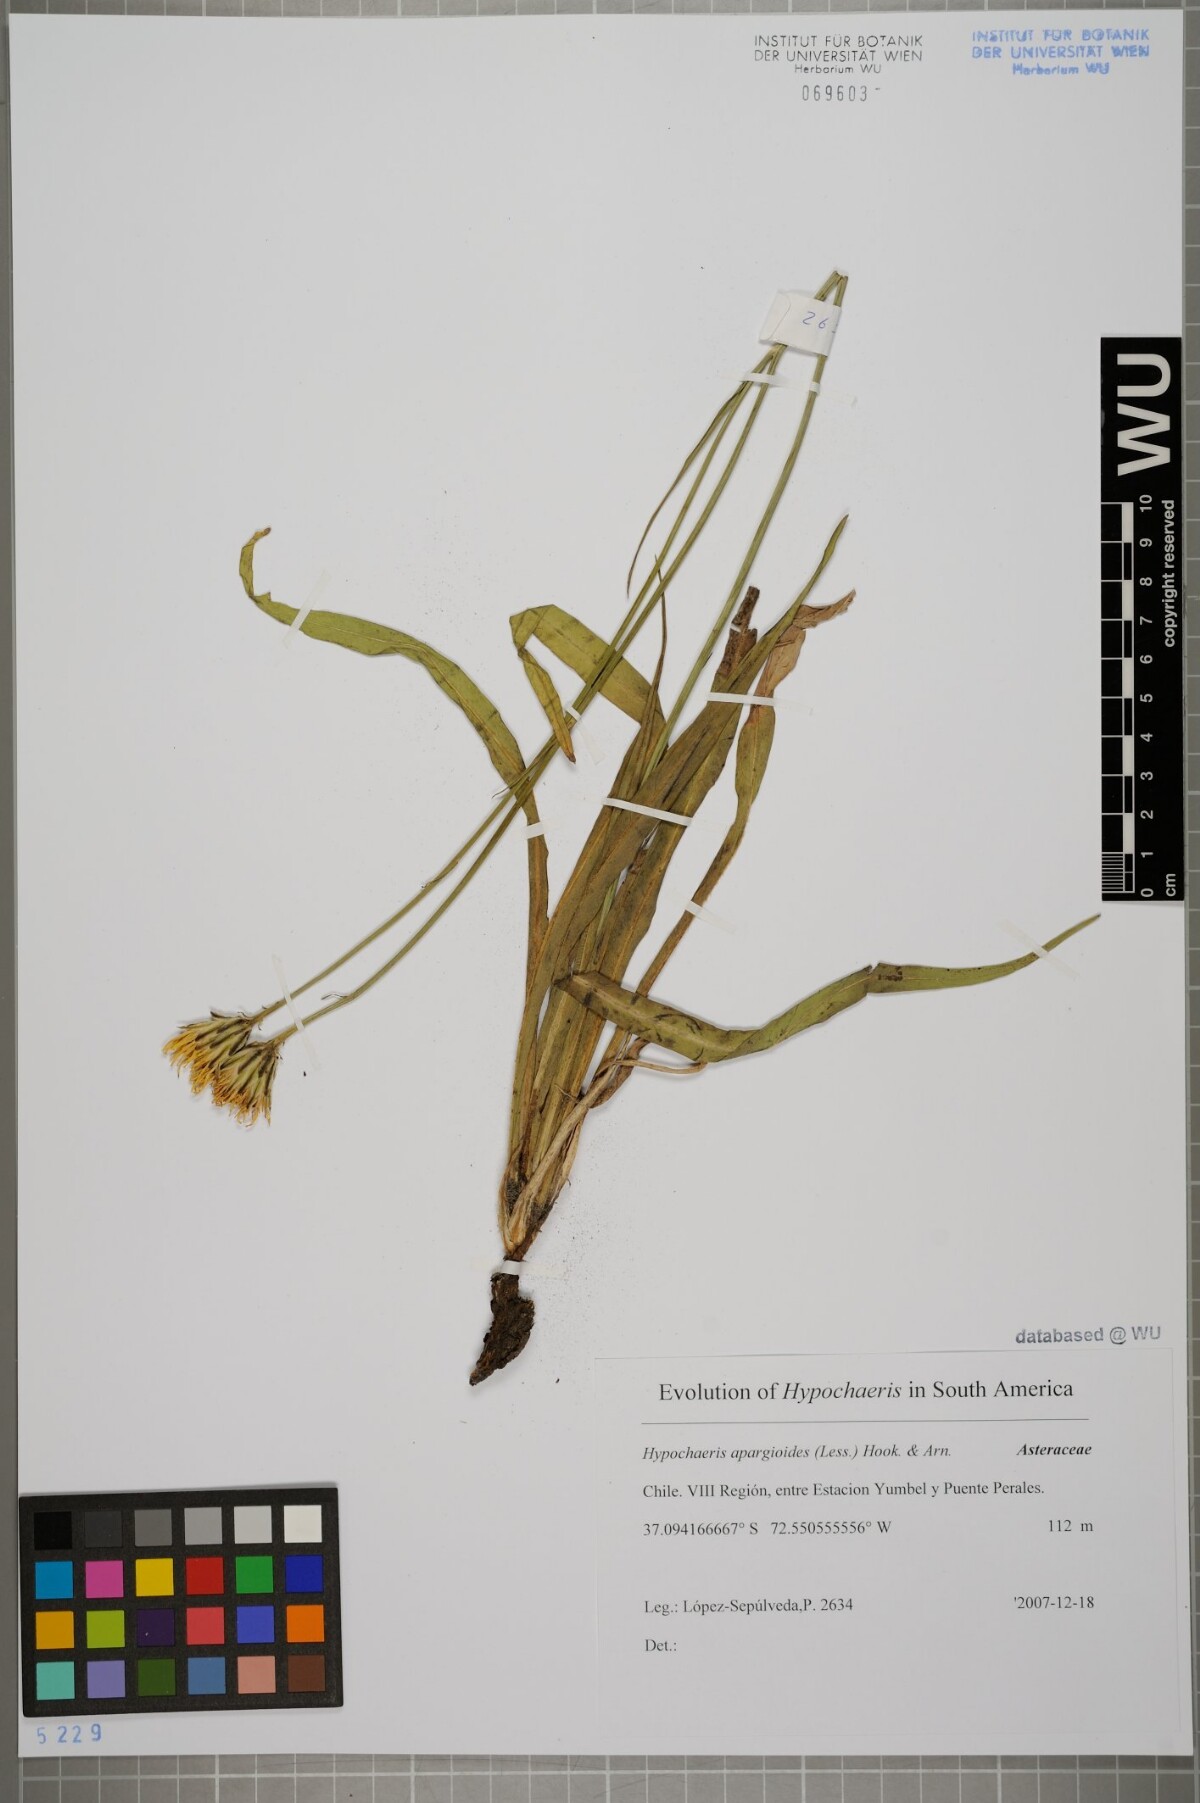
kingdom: Plantae
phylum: Tracheophyta
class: Magnoliopsida
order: Asterales
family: Asteraceae
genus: Hypochaeris
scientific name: Hypochaeris apargioides
